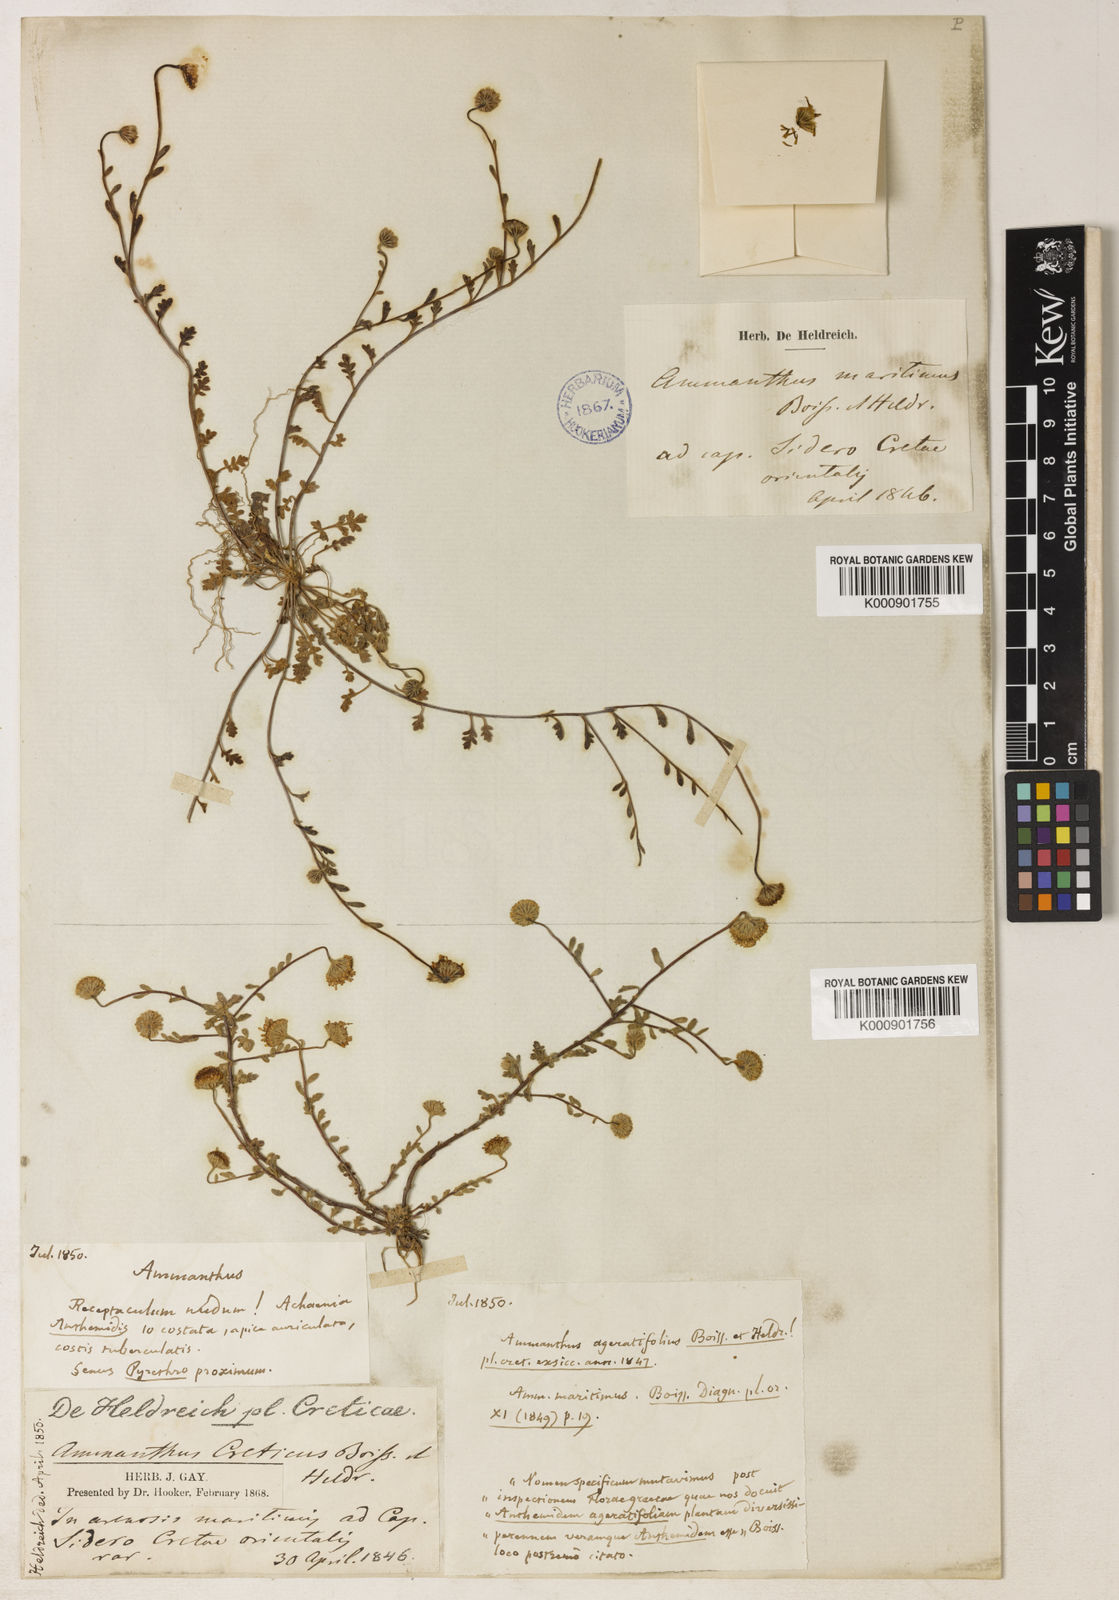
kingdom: Plantae
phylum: Tracheophyta
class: Magnoliopsida
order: Asterales
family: Asteraceae
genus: Anthemis
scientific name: Anthemis maritima
